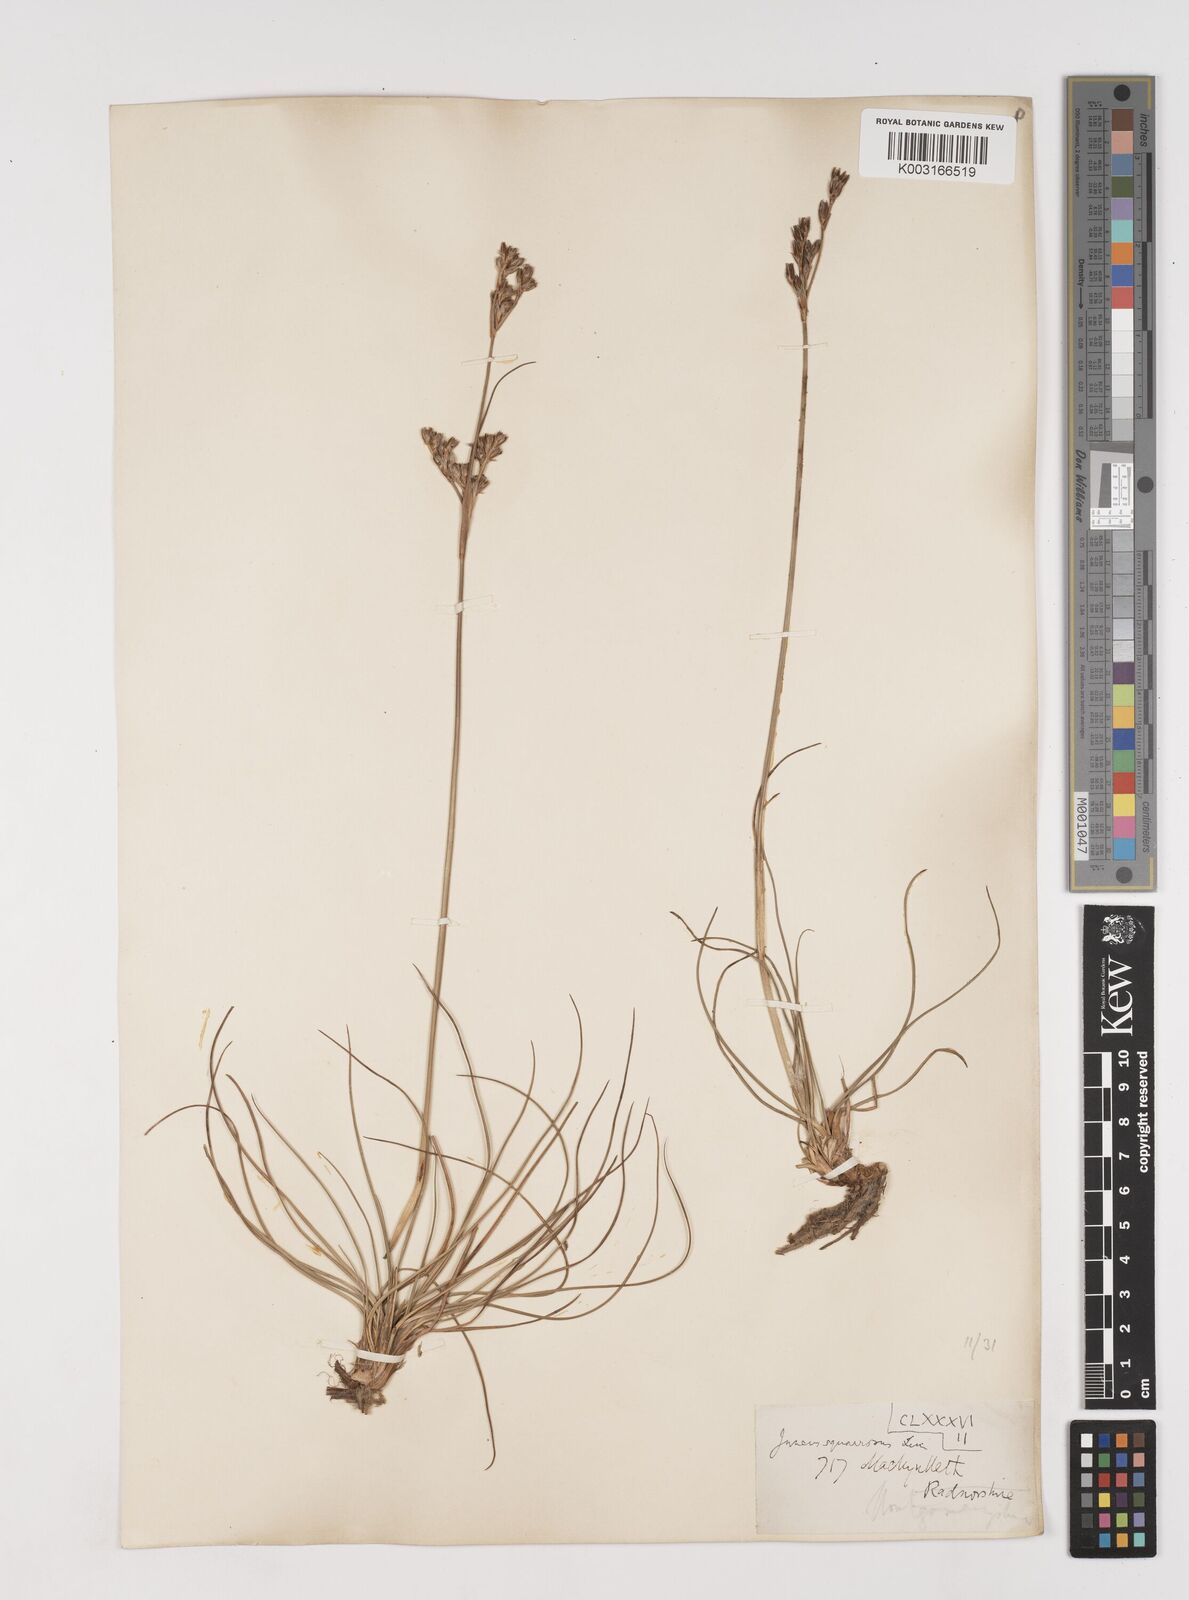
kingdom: Plantae
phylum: Tracheophyta
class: Liliopsida
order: Poales
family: Juncaceae
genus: Juncus
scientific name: Juncus squarrosus
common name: Heath rush
